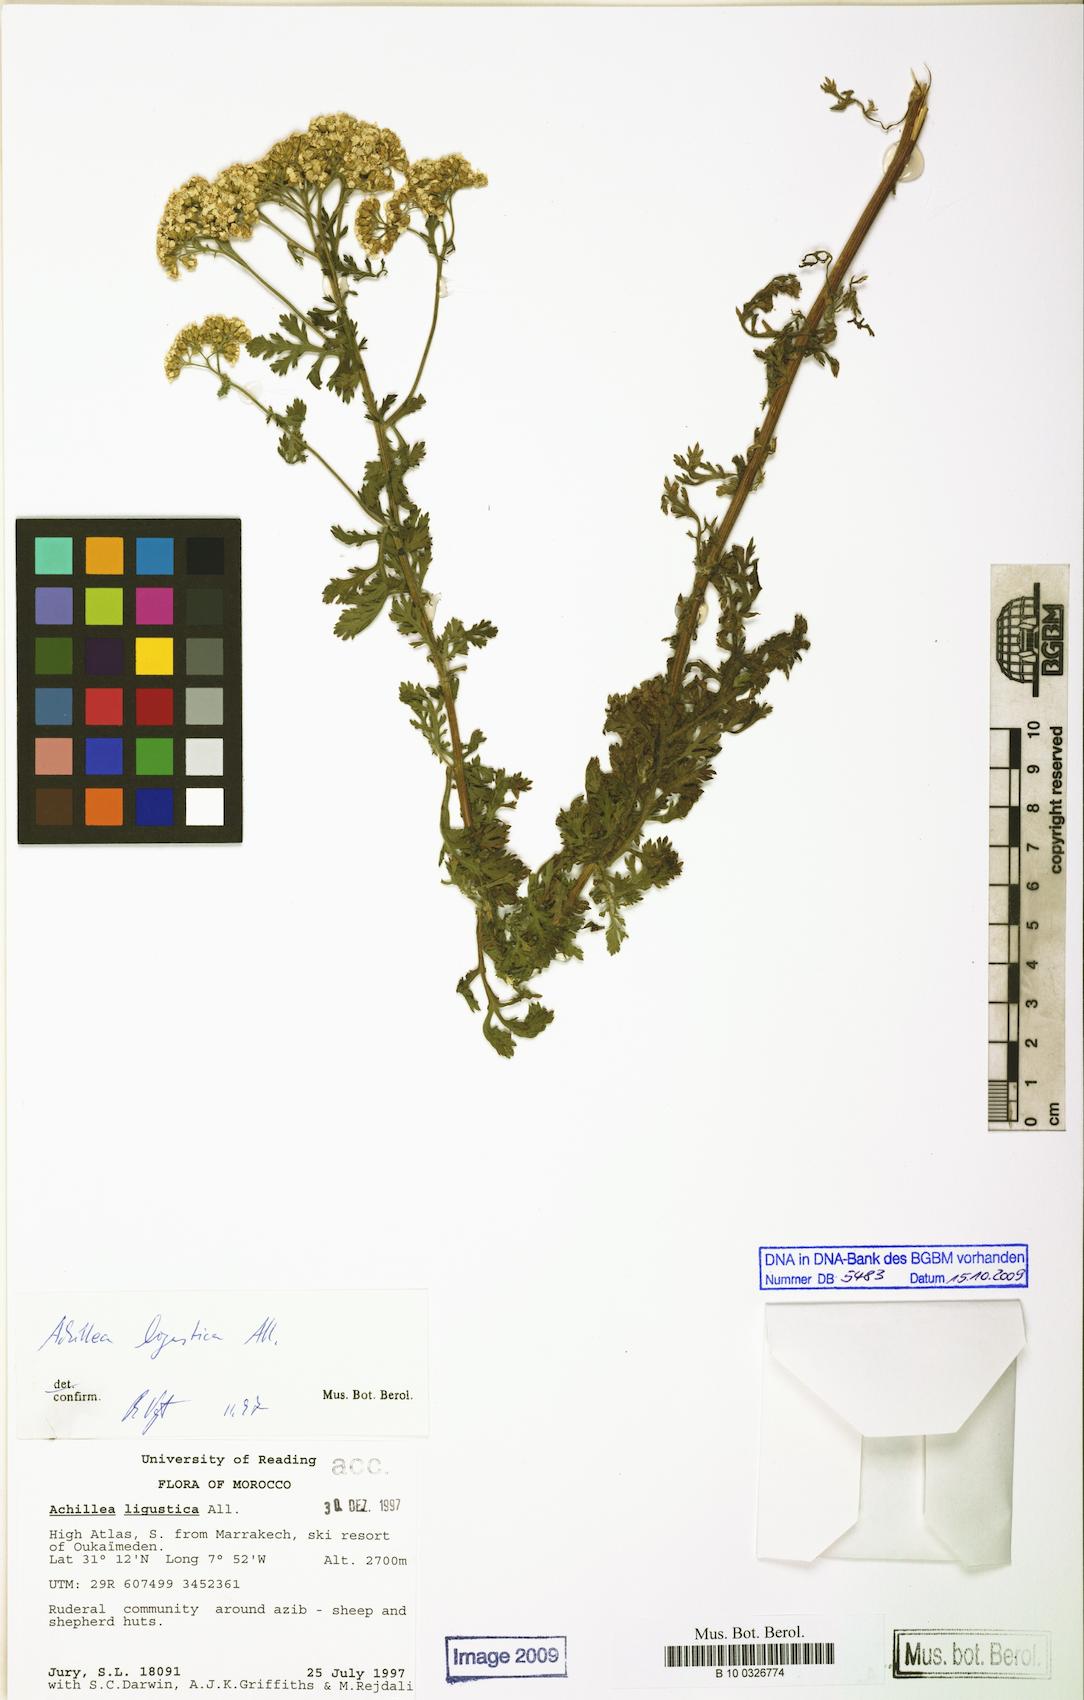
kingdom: Plantae
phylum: Tracheophyta
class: Magnoliopsida
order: Asterales
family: Asteraceae
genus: Achillea
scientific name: Achillea ligustica
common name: Southern yarrow
